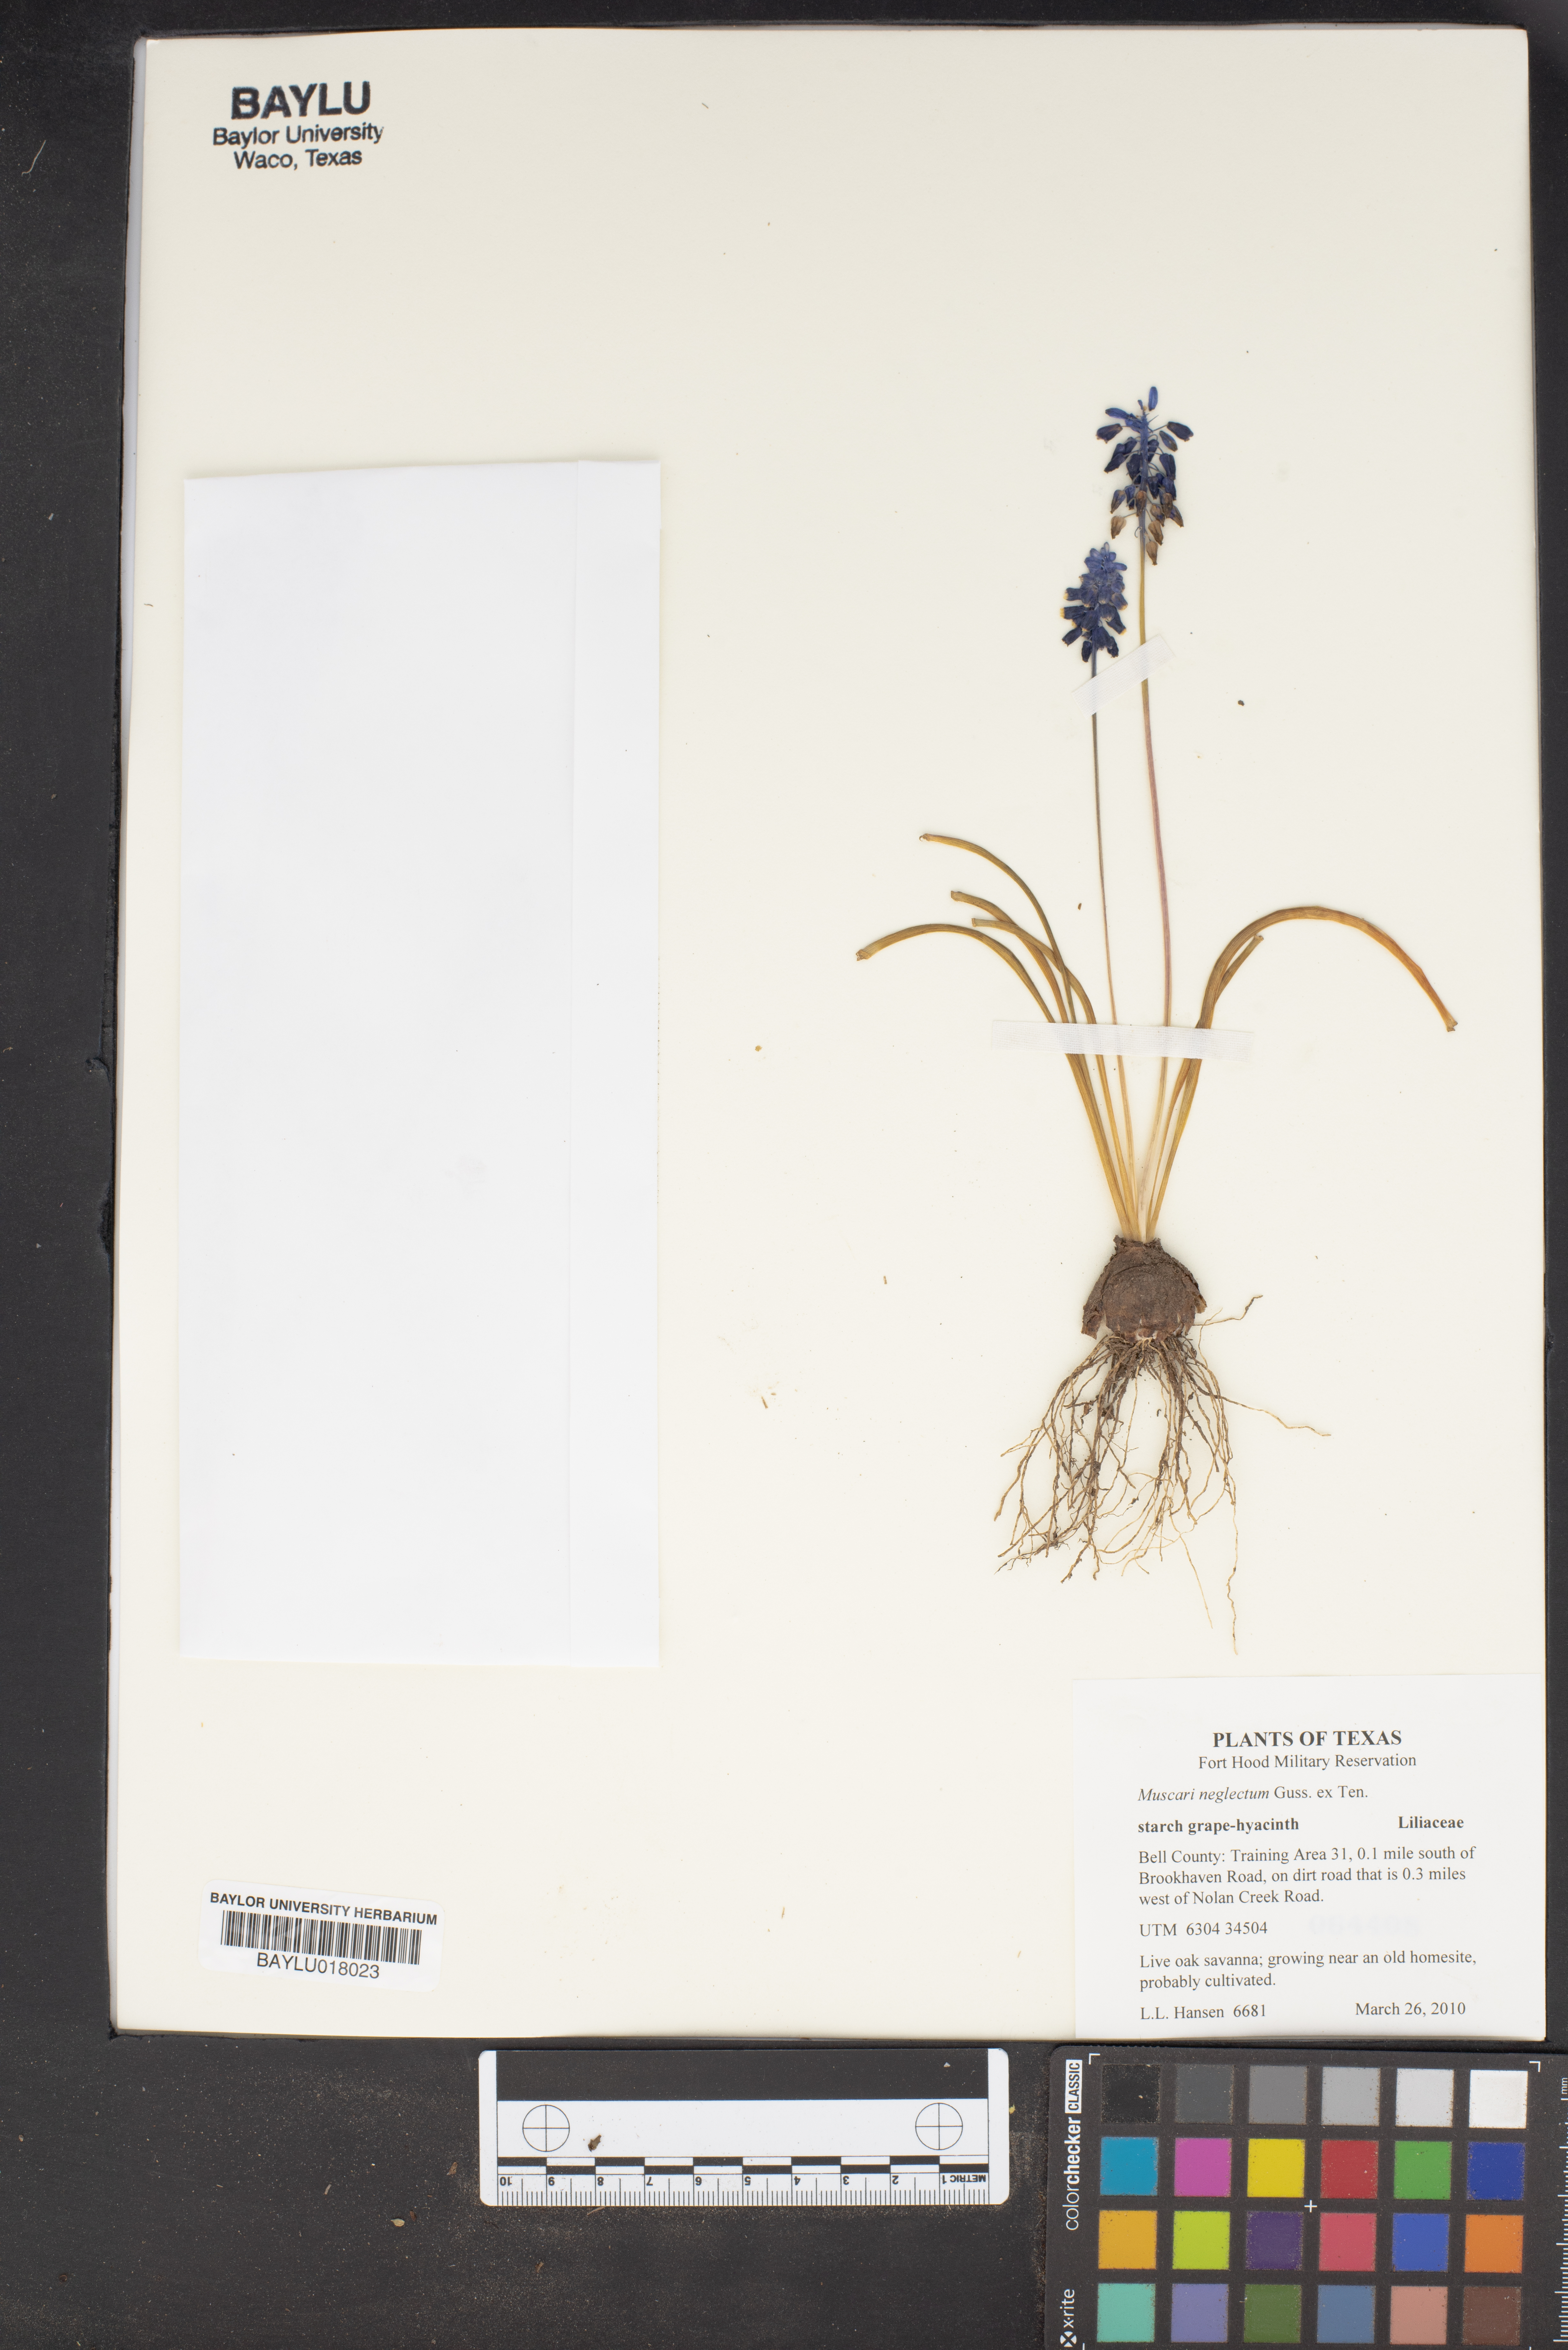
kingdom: Plantae
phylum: Tracheophyta
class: Liliopsida
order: Asparagales
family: Asparagaceae
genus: Muscari
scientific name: Muscari neglectum
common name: Grape-hyacinth
